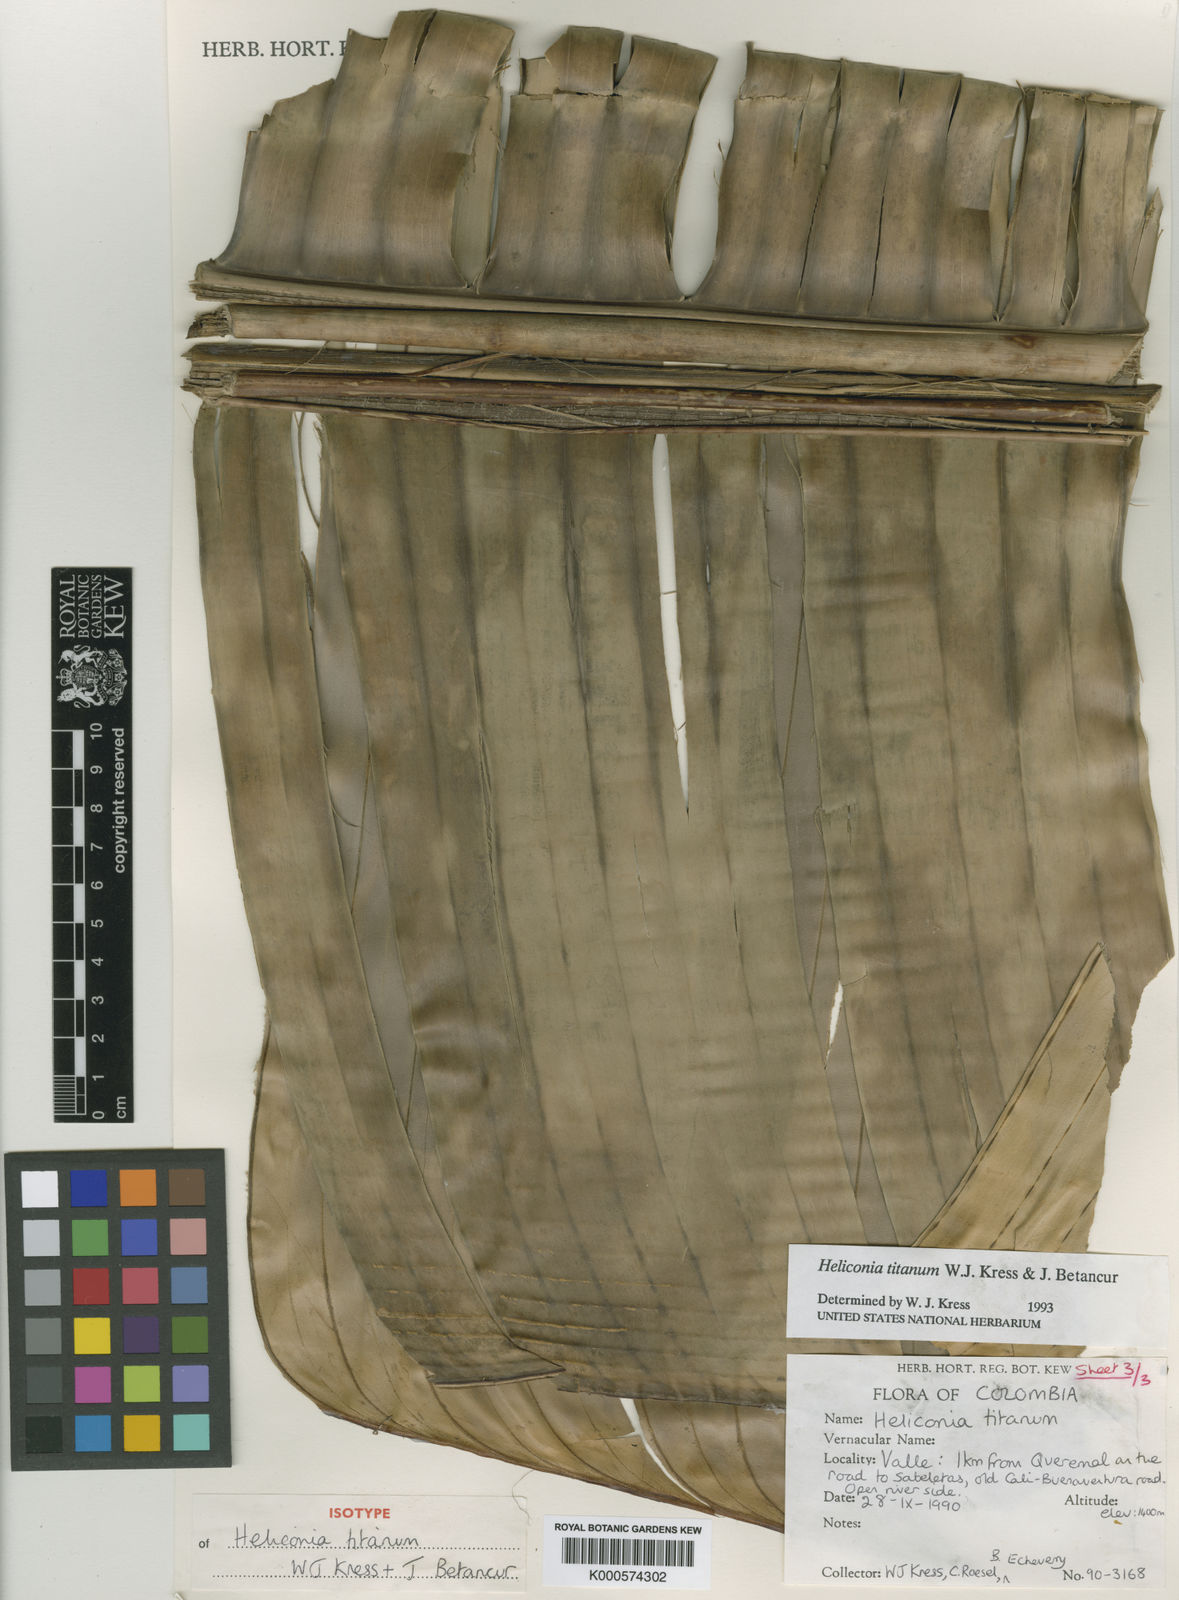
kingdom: Plantae
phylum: Tracheophyta
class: Liliopsida
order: Zingiberales
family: Heliconiaceae
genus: Heliconia
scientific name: Heliconia titanum
